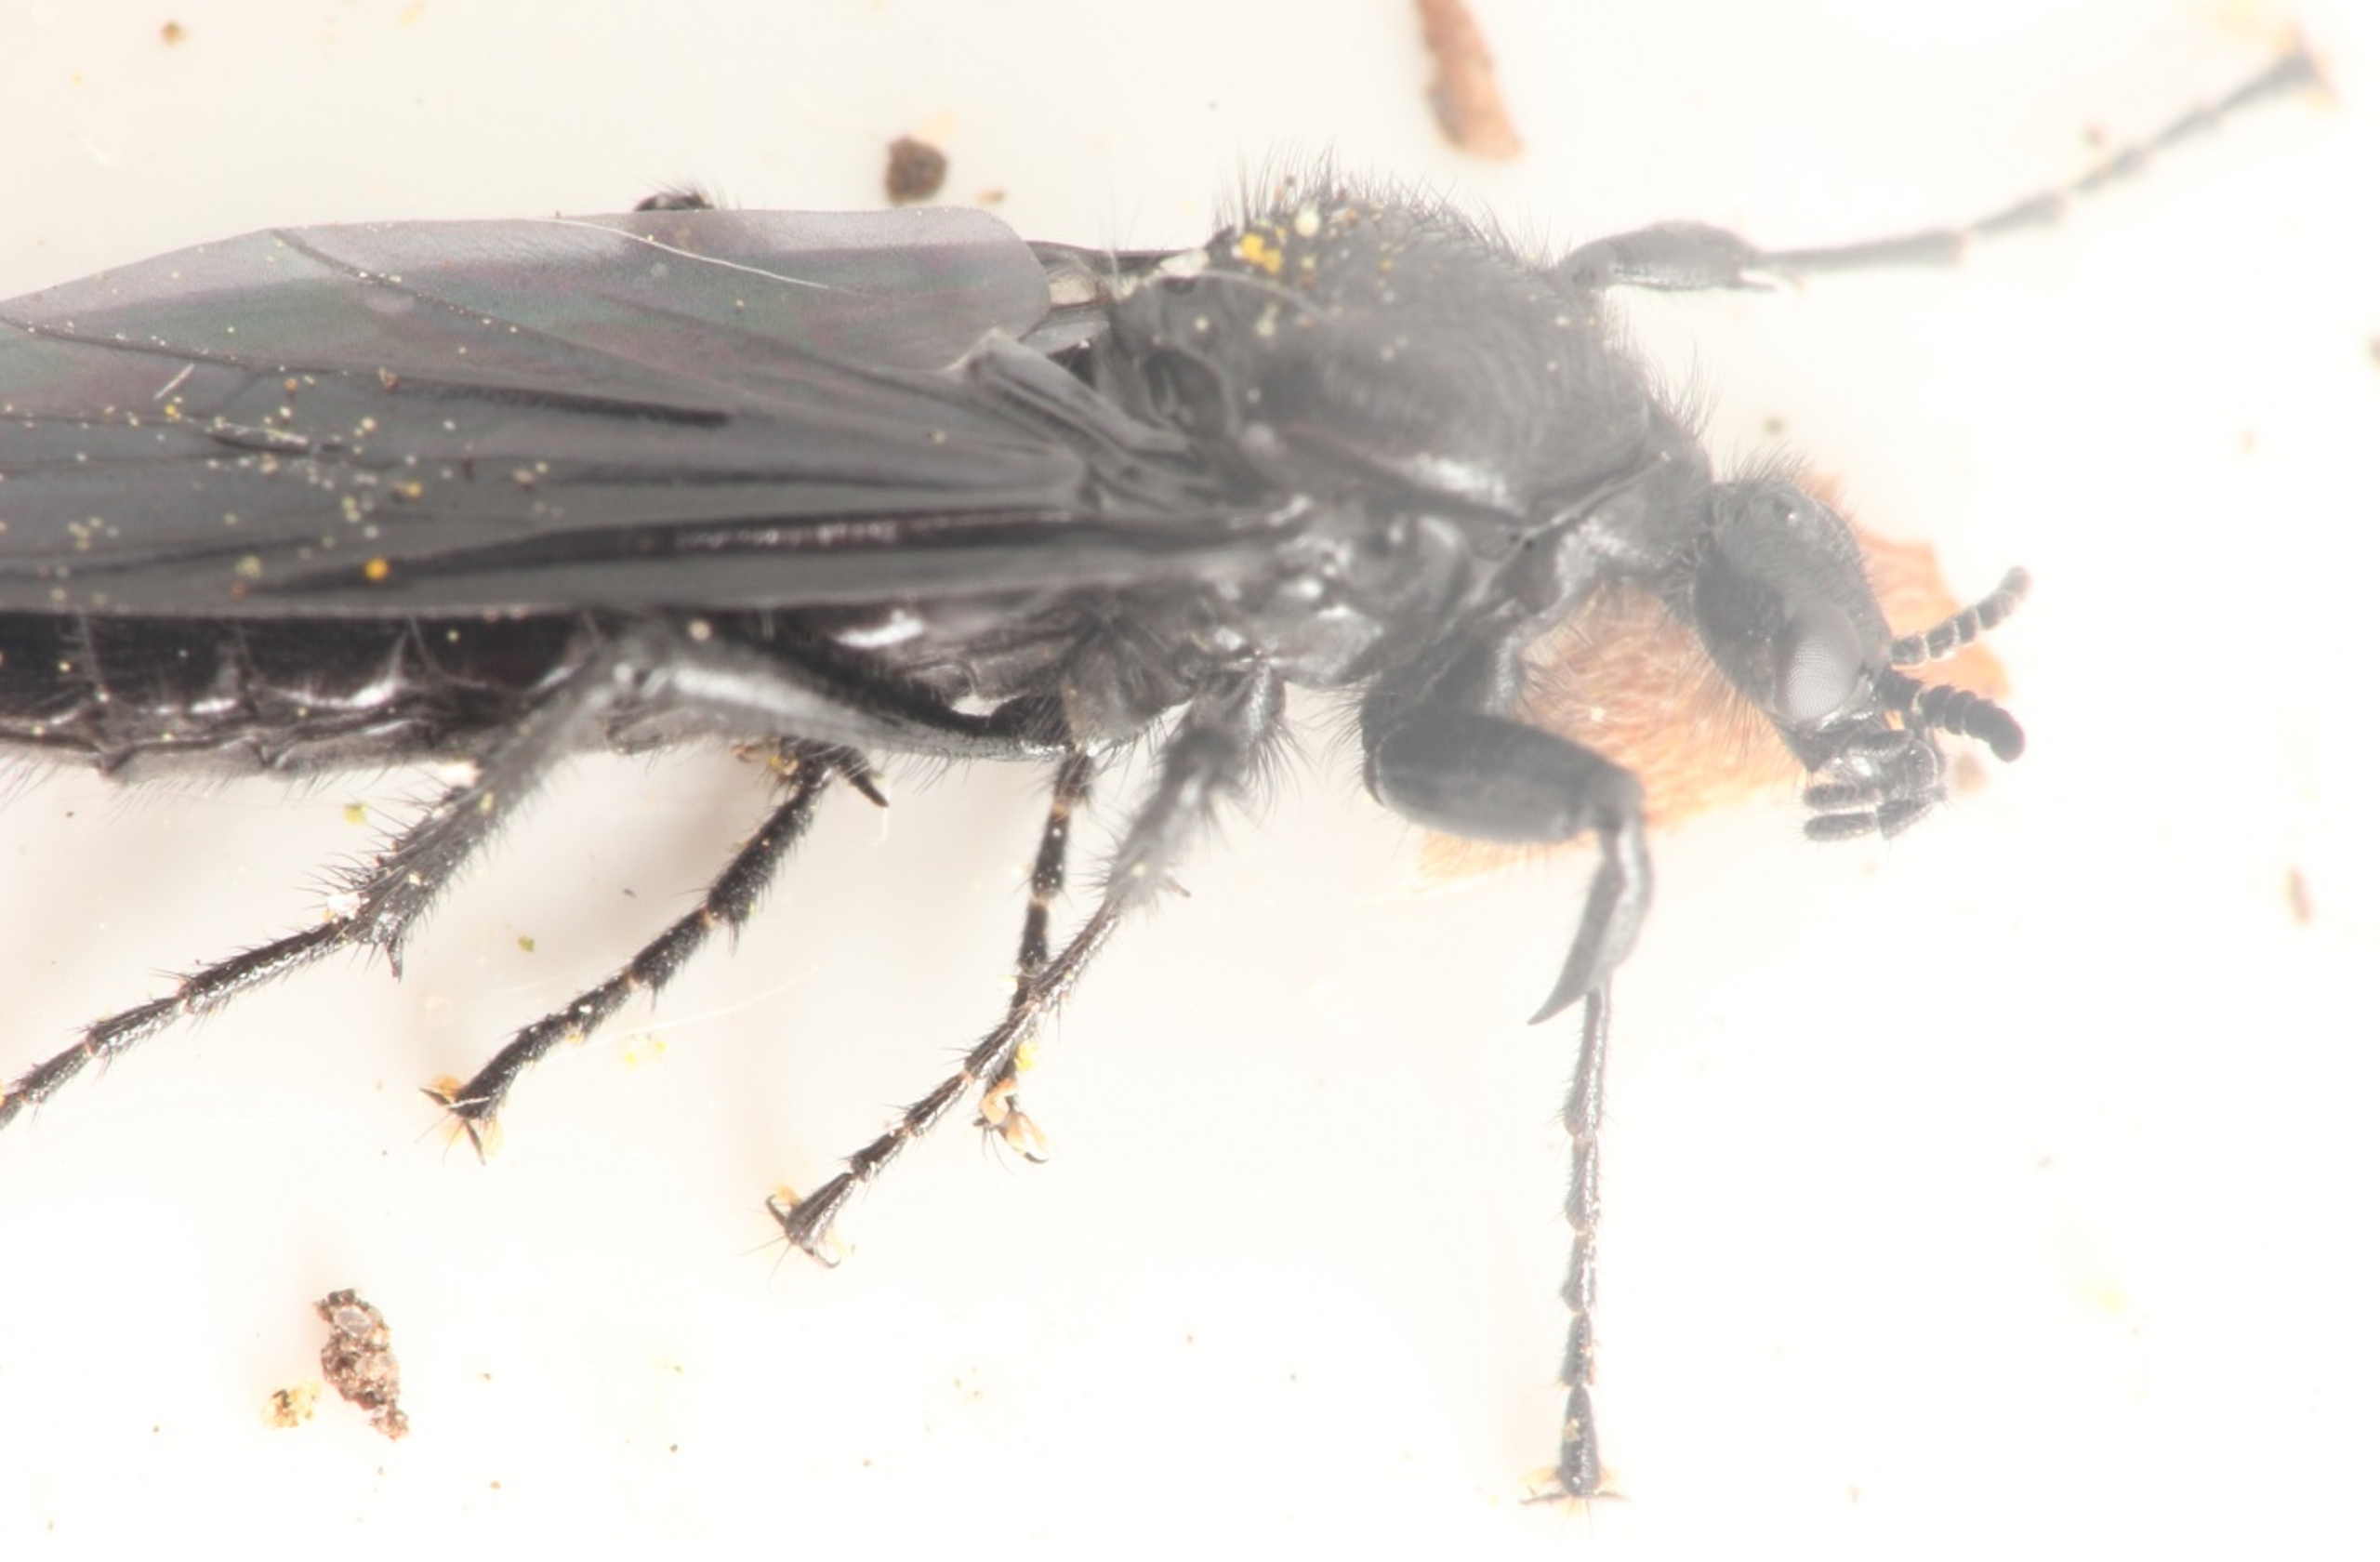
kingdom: Animalia
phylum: Arthropoda
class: Insecta
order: Diptera
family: Bibionidae
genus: Bibio
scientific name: Bibio marci
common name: Skovhårmyg
